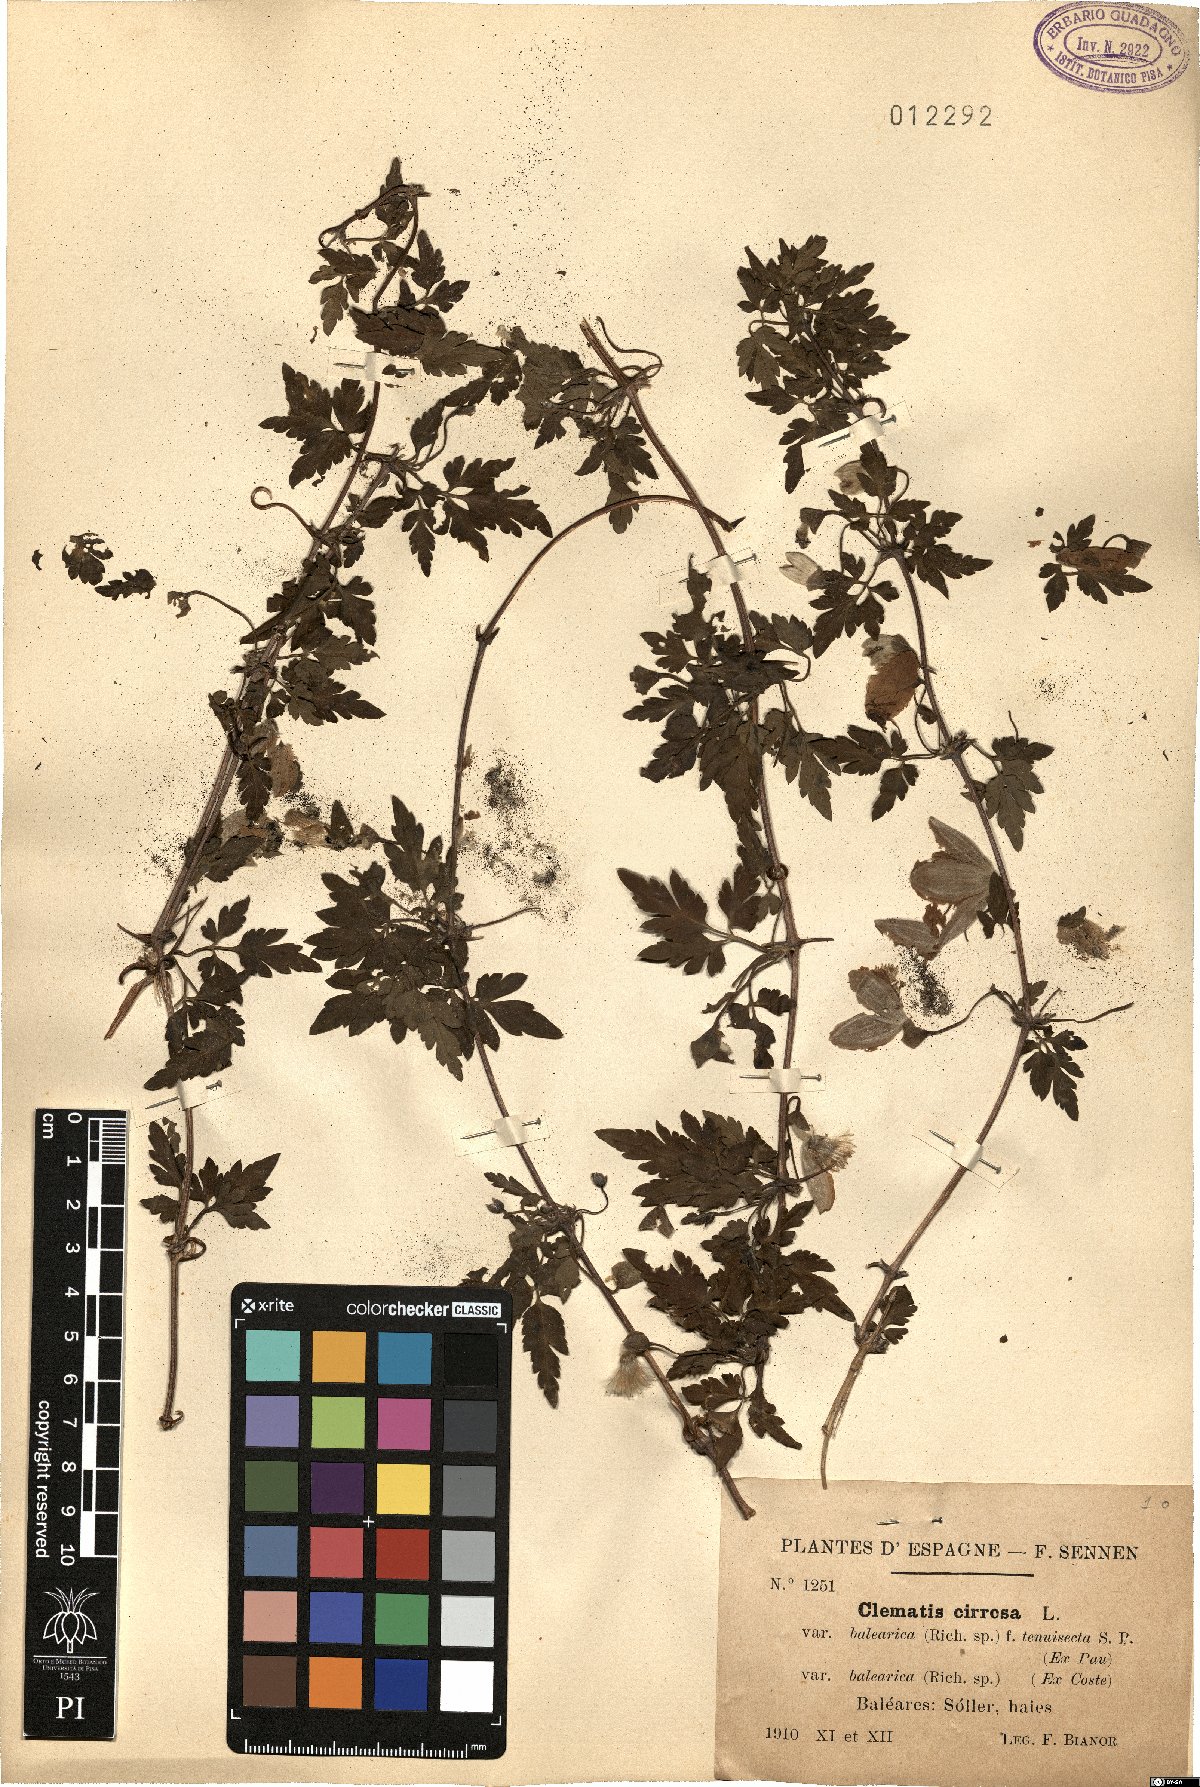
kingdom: Plantae
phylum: Tracheophyta
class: Magnoliopsida
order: Ranunculales
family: Ranunculaceae
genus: Clematis
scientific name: Clematis cirrhosa
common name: Early virgin's-bower
